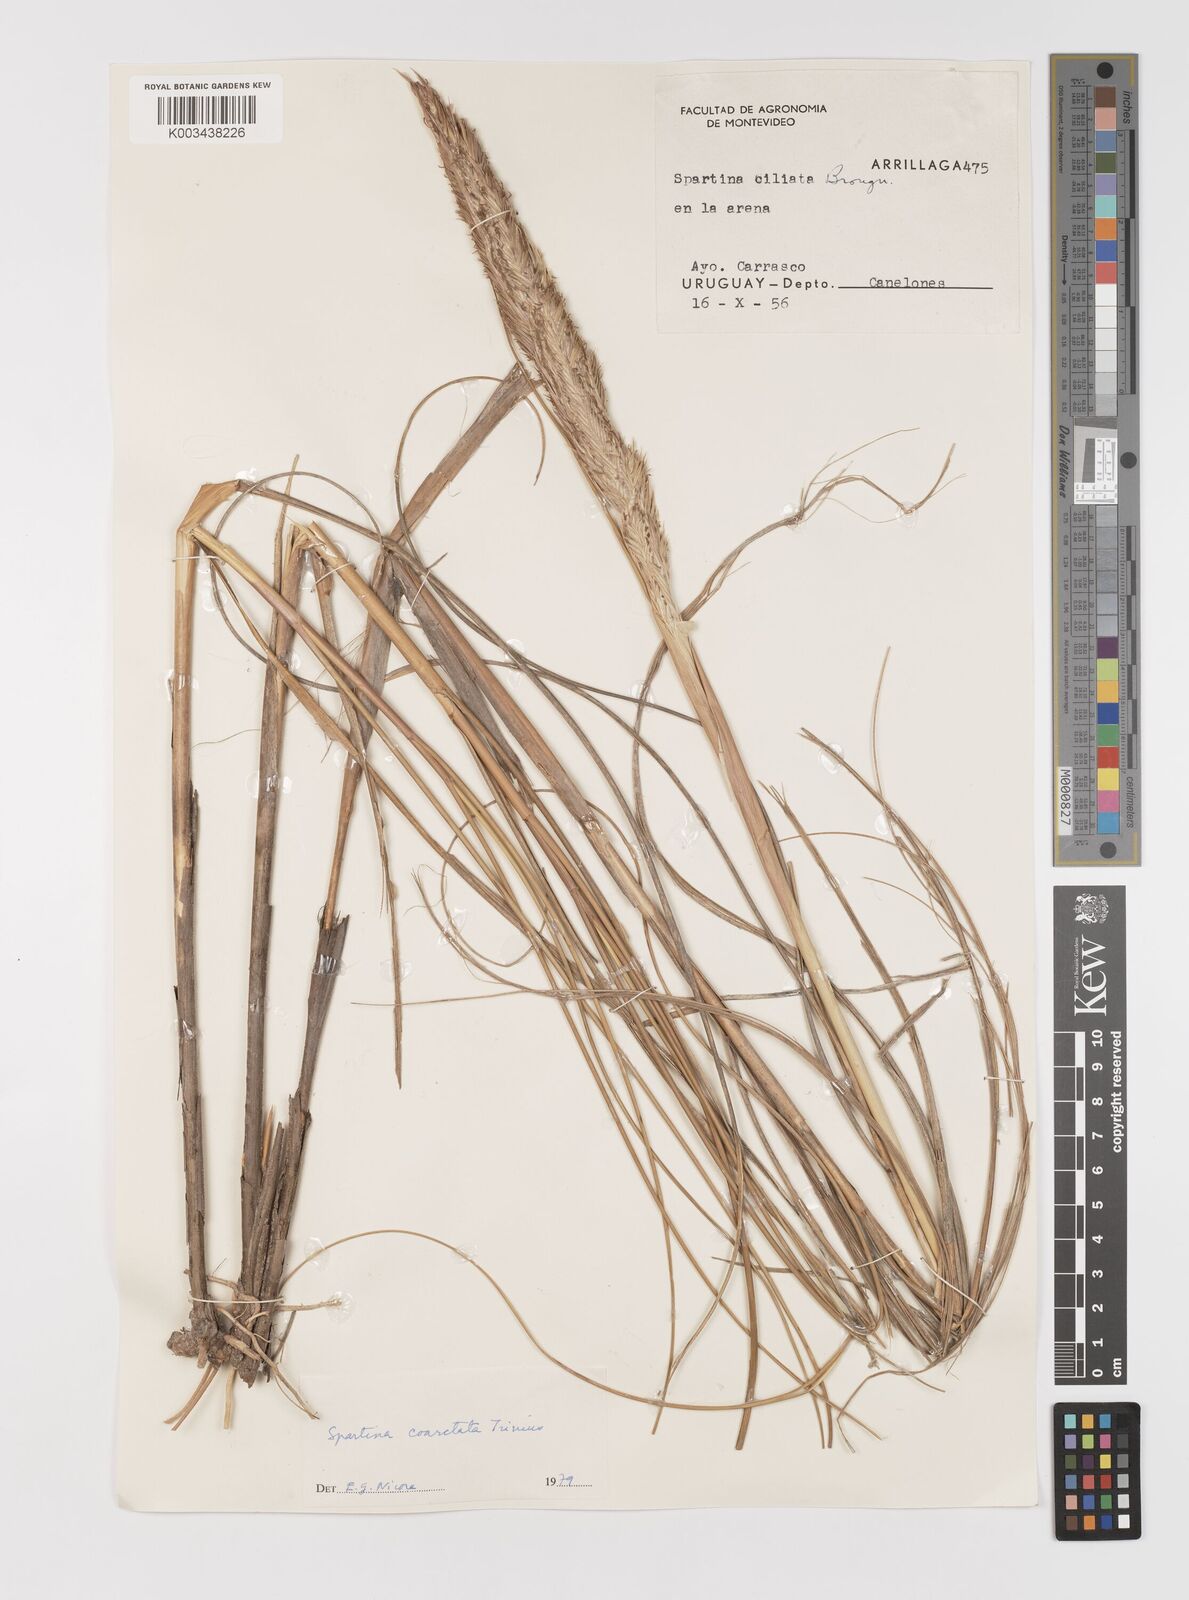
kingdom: Plantae
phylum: Tracheophyta
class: Liliopsida
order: Poales
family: Poaceae
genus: Sporobolus
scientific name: Sporobolus coarctatus
